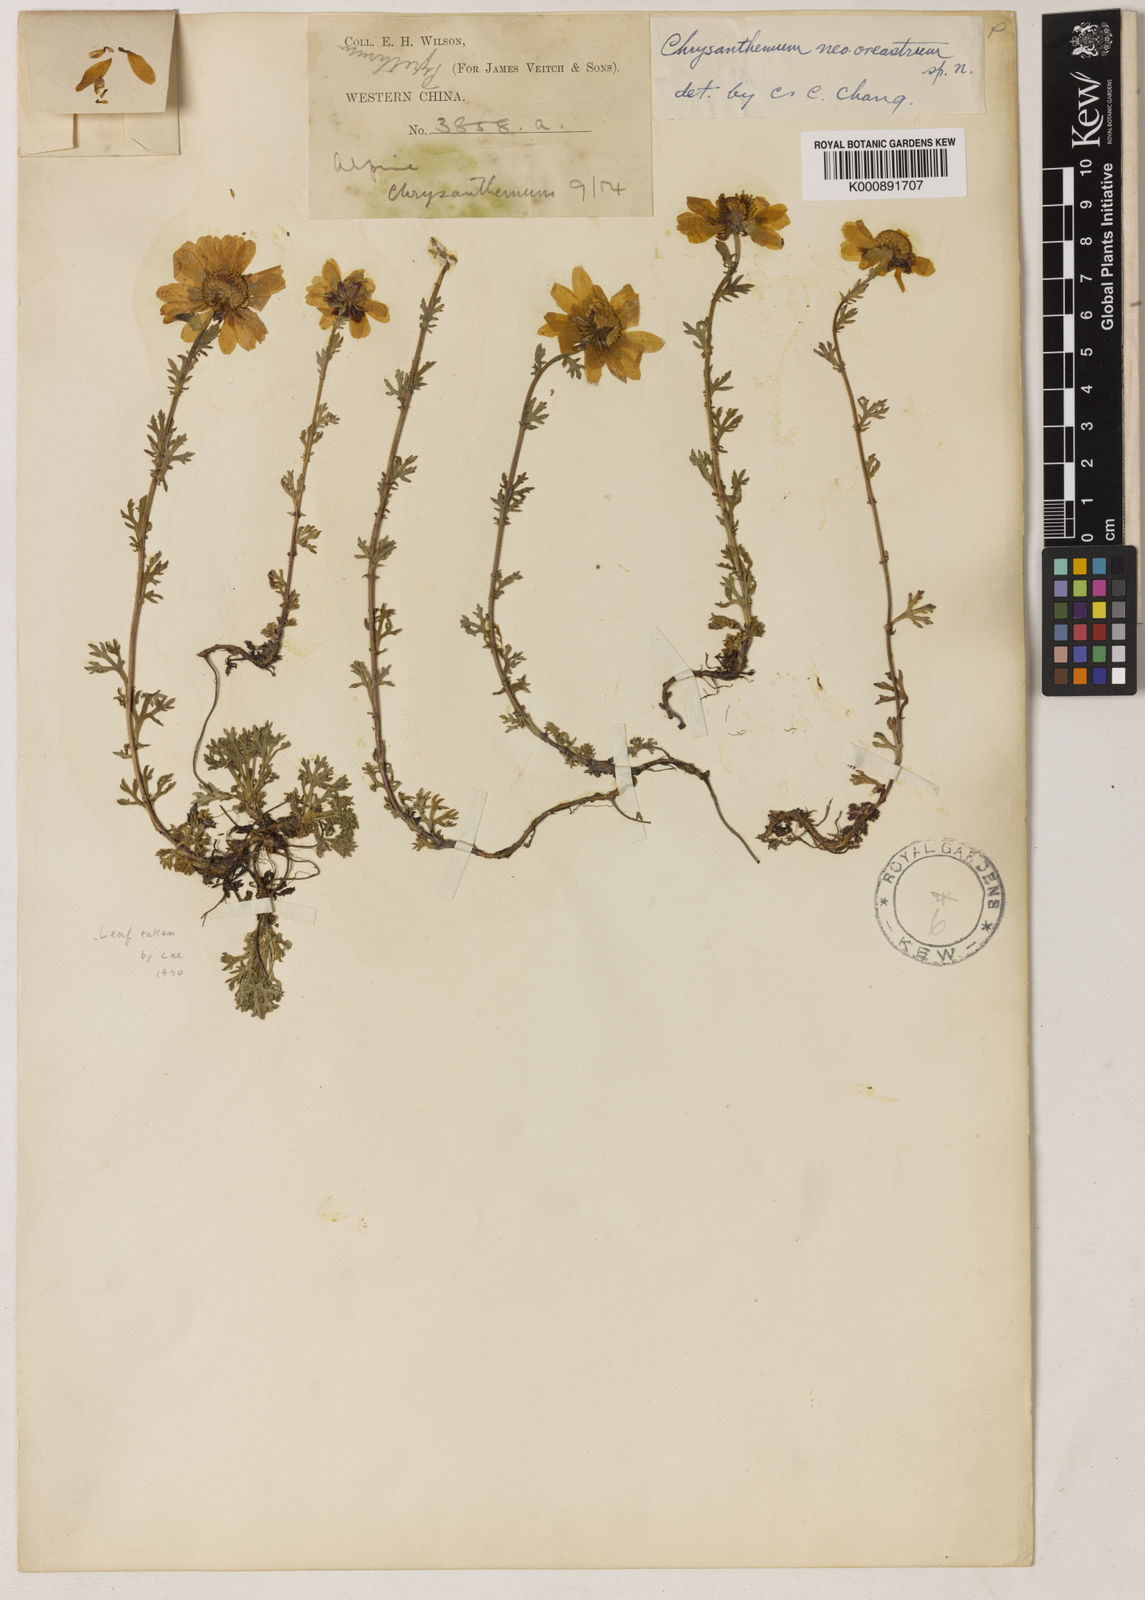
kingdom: Plantae
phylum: Tracheophyta
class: Magnoliopsida
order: Asterales
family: Asteraceae
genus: Chrysanthemum
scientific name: Chrysanthemum
